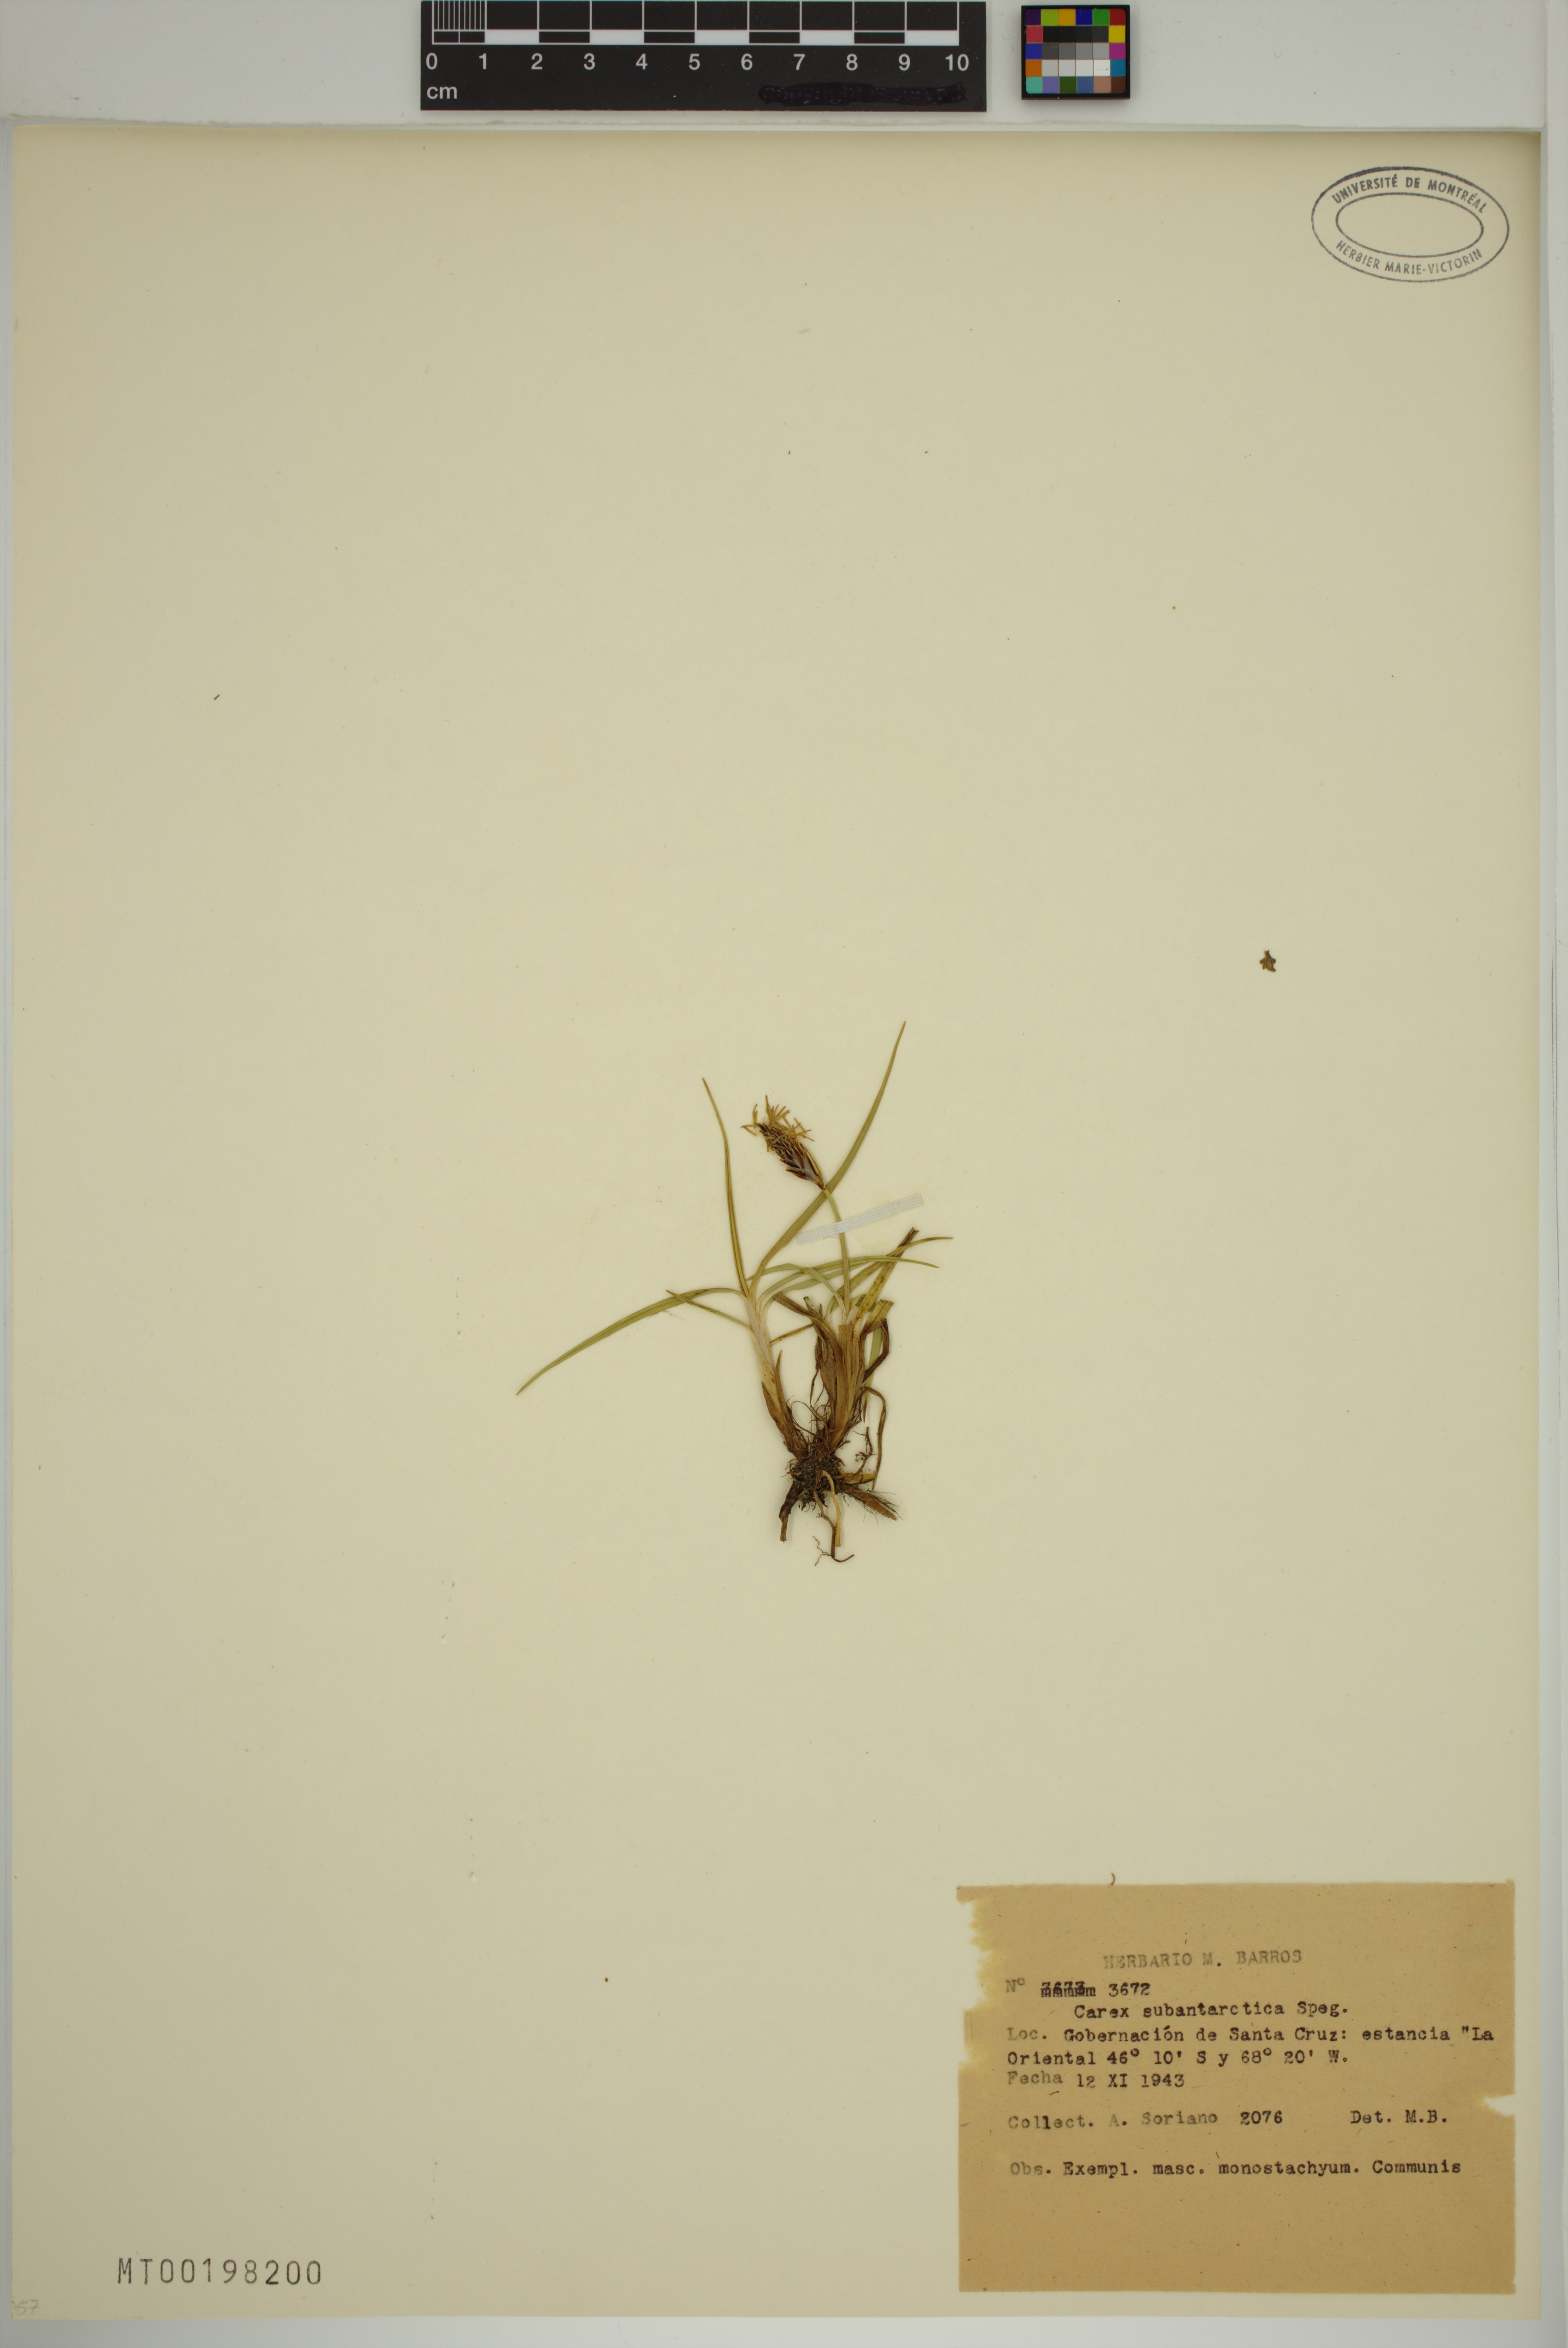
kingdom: Plantae
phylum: Tracheophyta
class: Liliopsida
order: Poales
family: Cyperaceae
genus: Carex
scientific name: Carex subantarctica
